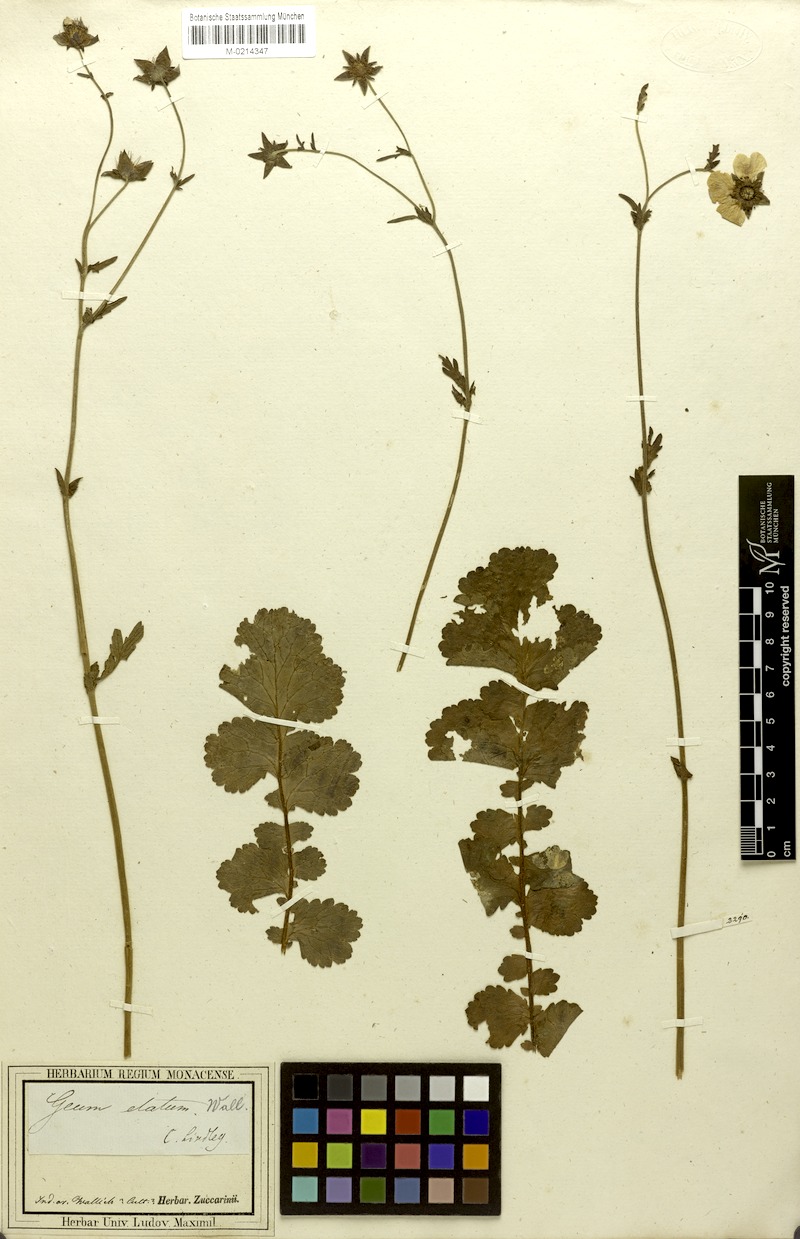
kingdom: Plantae
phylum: Tracheophyta
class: Magnoliopsida
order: Rosales
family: Rosaceae
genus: Geum
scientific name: Geum elatum
